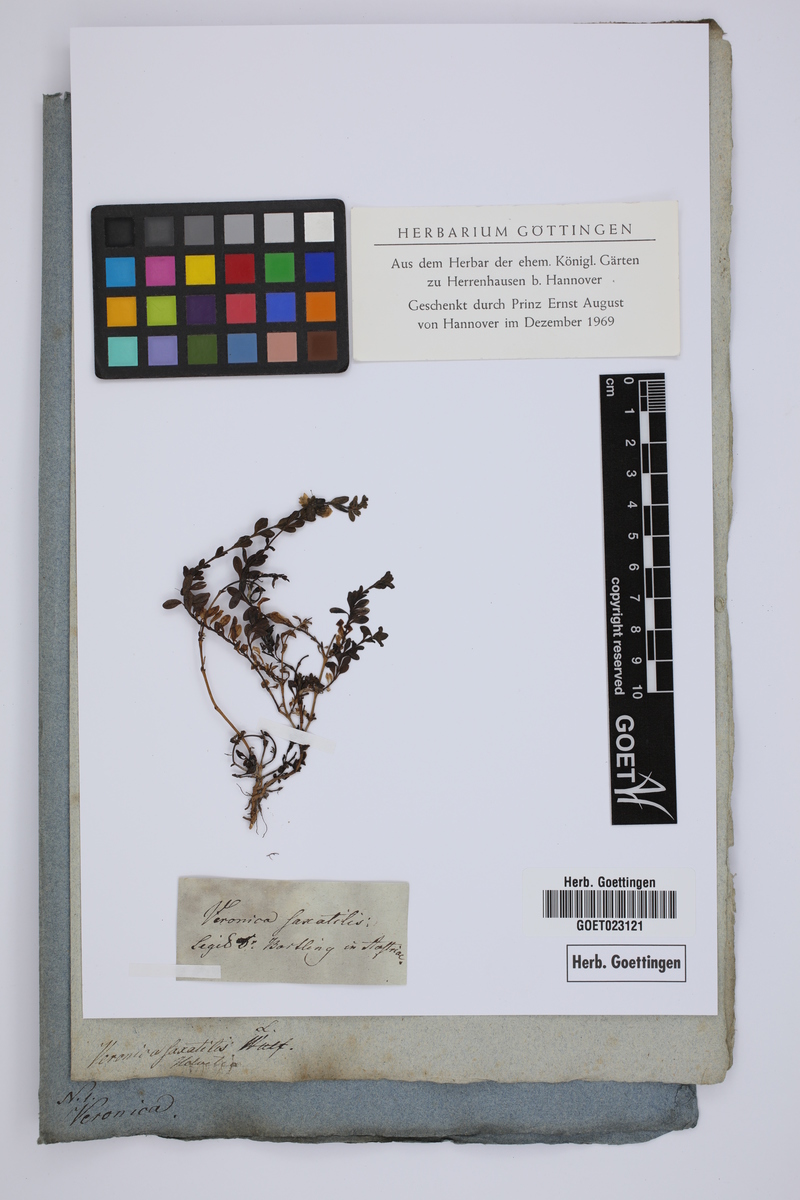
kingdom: Plantae
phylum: Tracheophyta
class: Magnoliopsida
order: Lamiales
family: Plantaginaceae
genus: Veronica
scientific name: Veronica fruticans
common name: Rock speedwell
